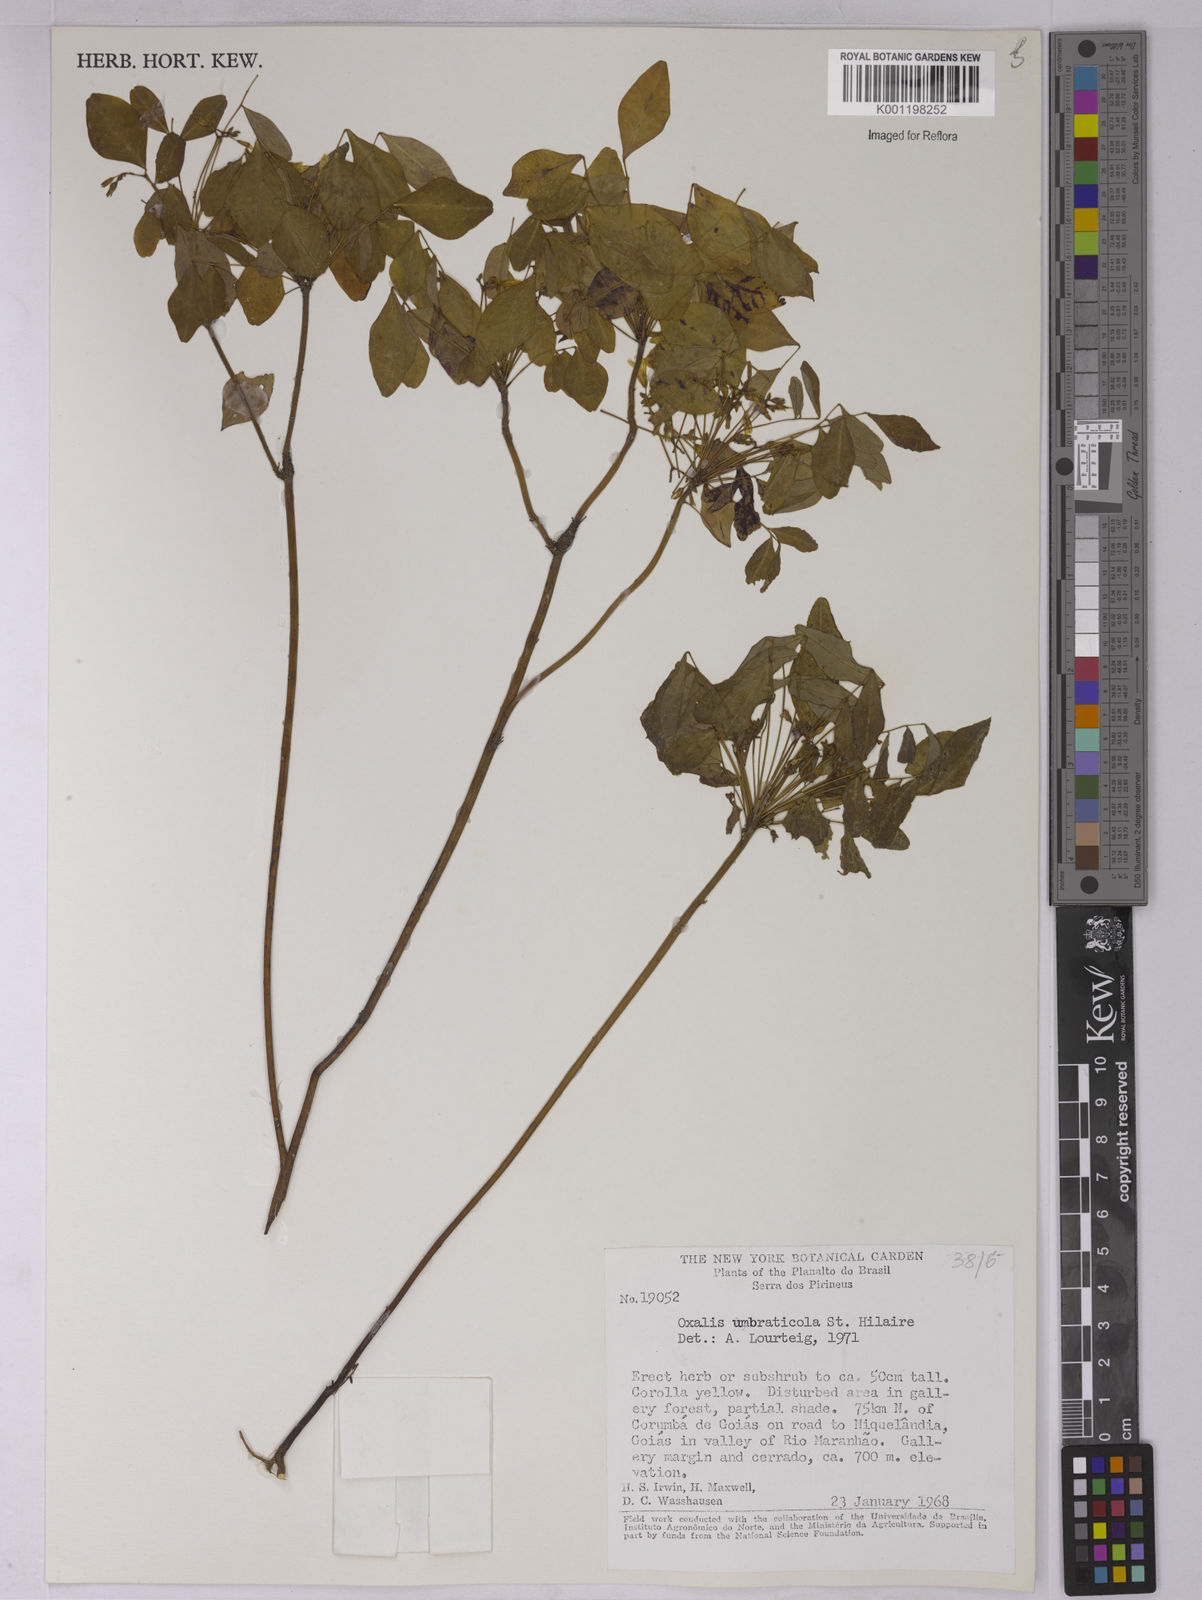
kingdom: Plantae
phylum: Tracheophyta
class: Magnoliopsida
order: Oxalidales
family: Oxalidaceae
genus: Oxalis
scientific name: Oxalis umbraticola
